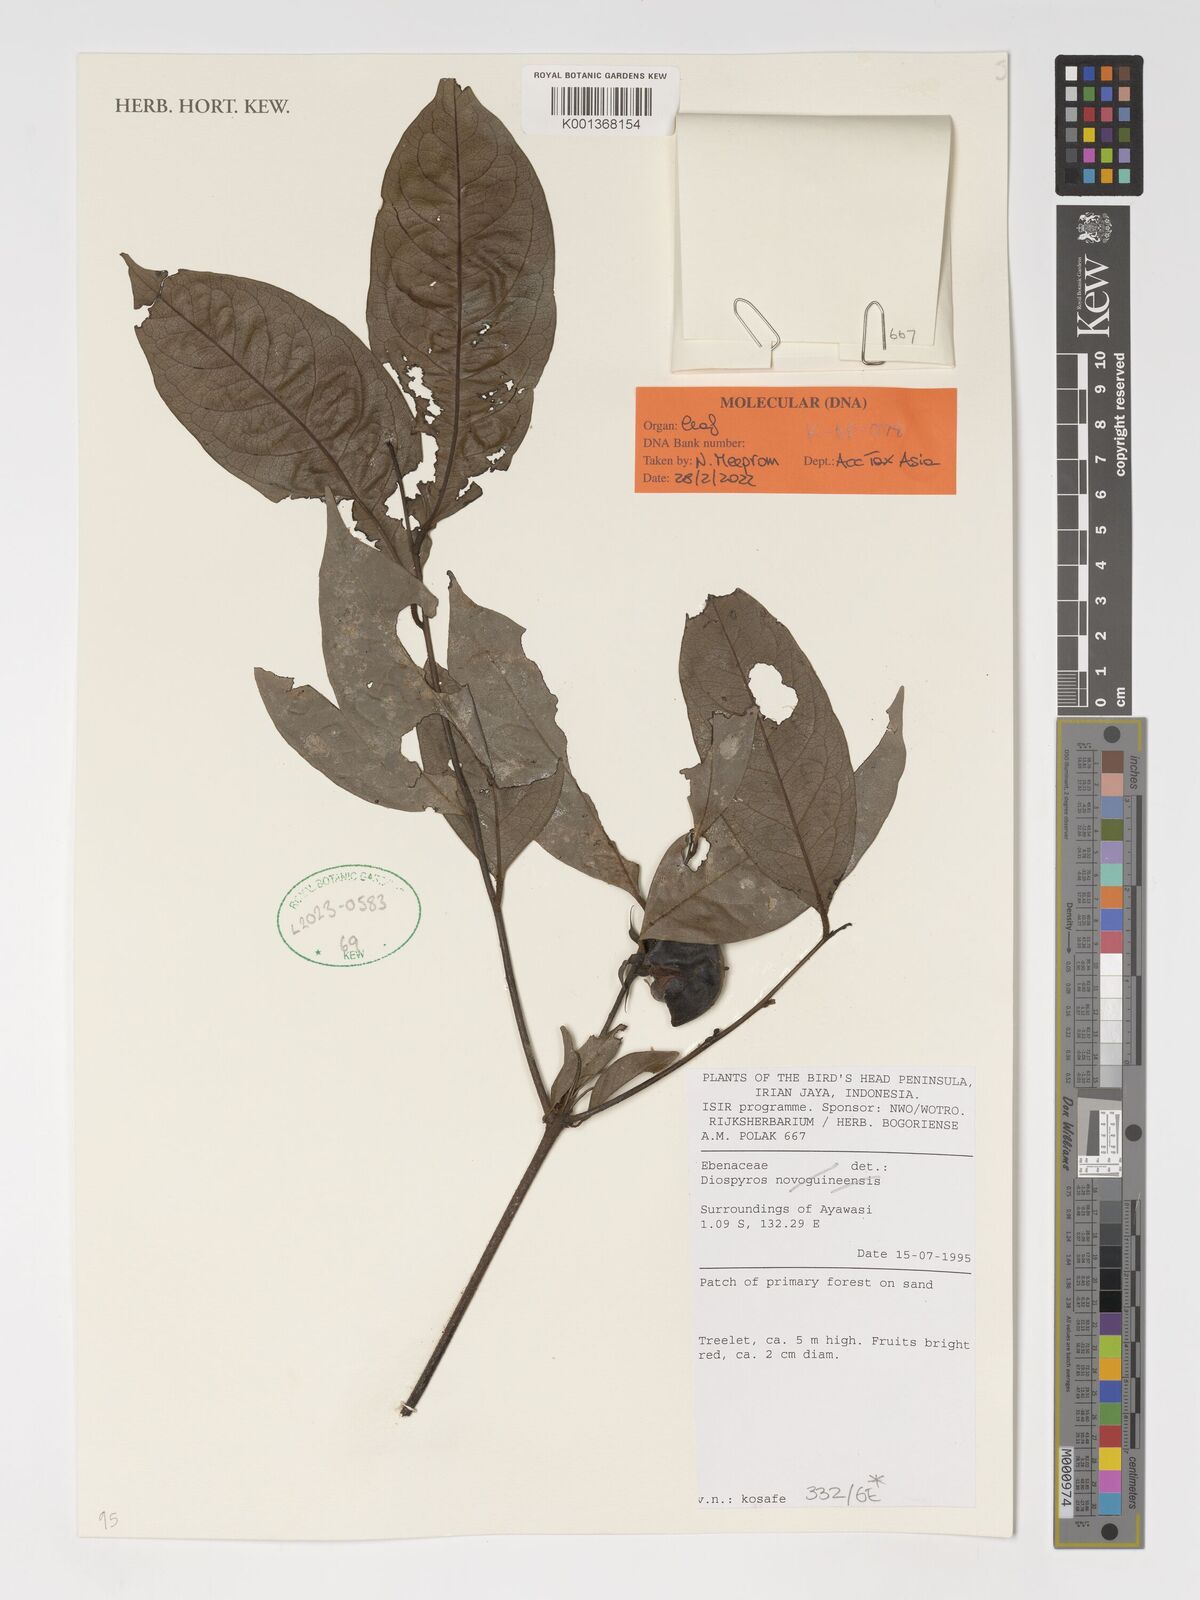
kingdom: Plantae
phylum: Tracheophyta
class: Magnoliopsida
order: Ericales
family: Ebenaceae
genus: Diospyros
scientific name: Diospyros
